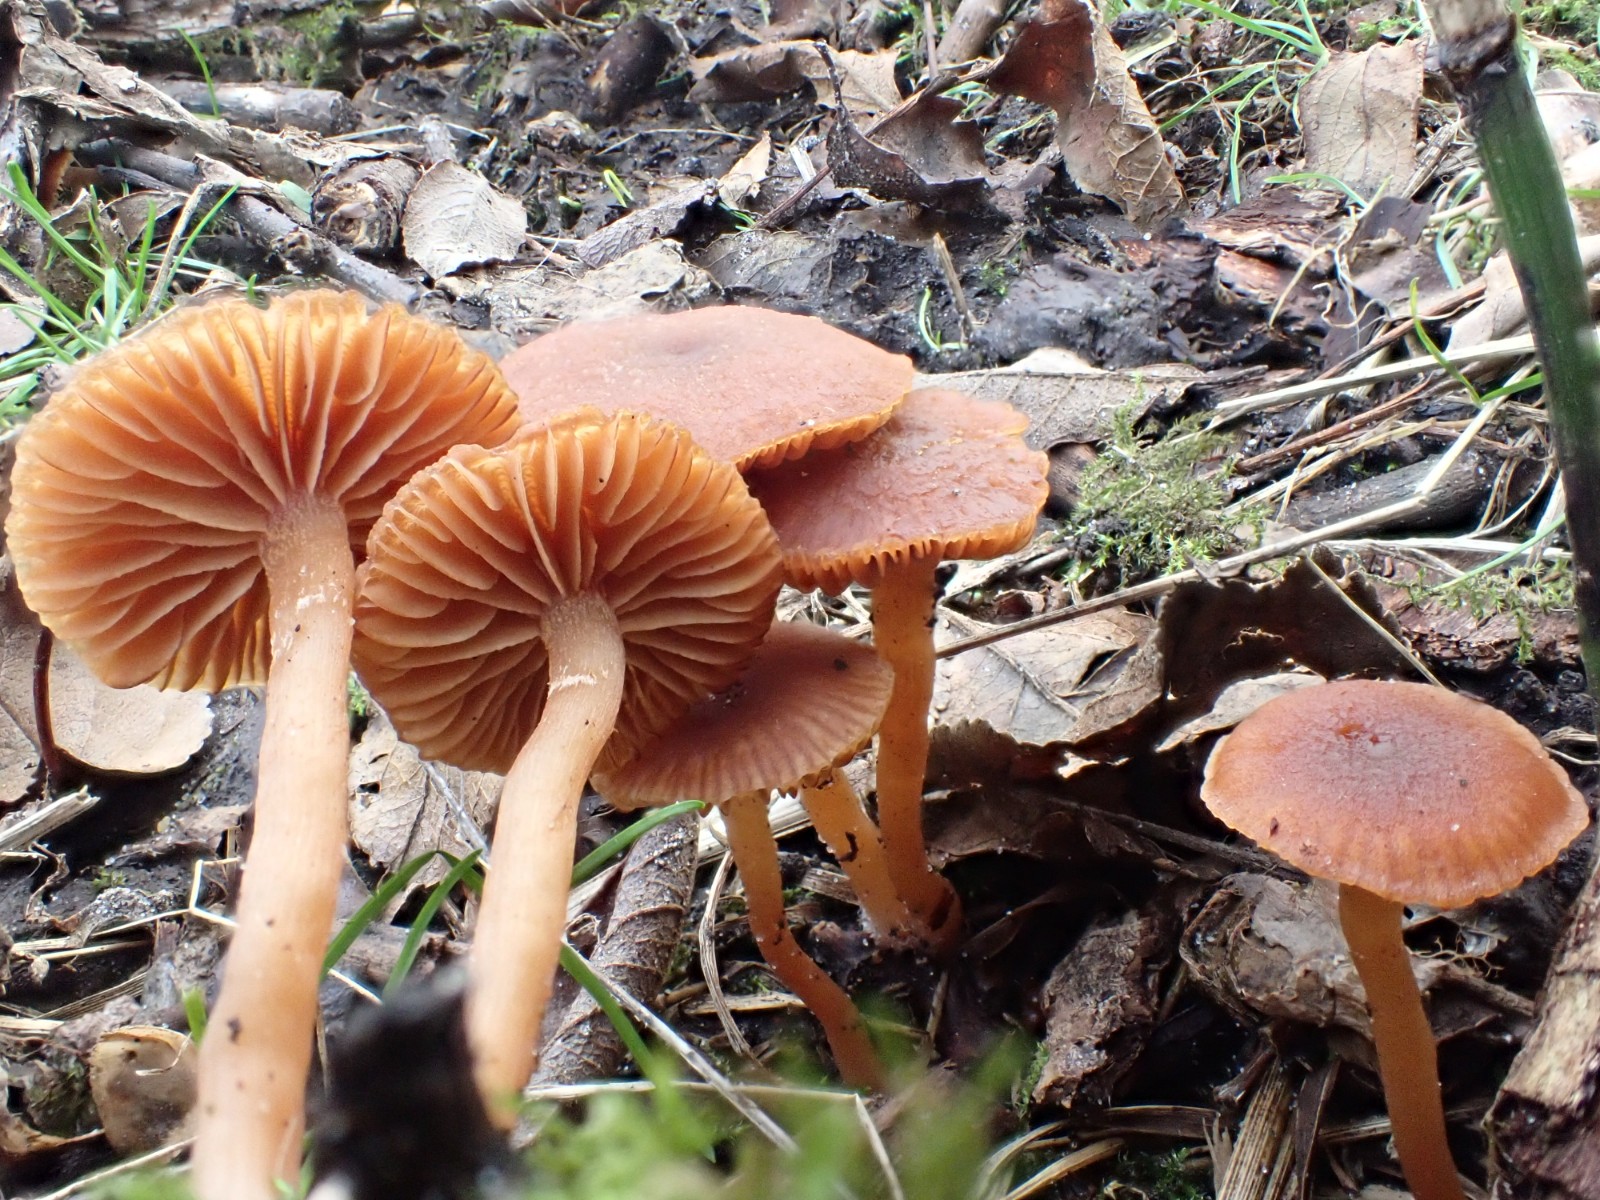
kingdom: Fungi
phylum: Basidiomycota
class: Agaricomycetes
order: Agaricales
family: Tubariaceae
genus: Tubaria
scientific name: Tubaria furfuracea
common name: kliddet fnughat
